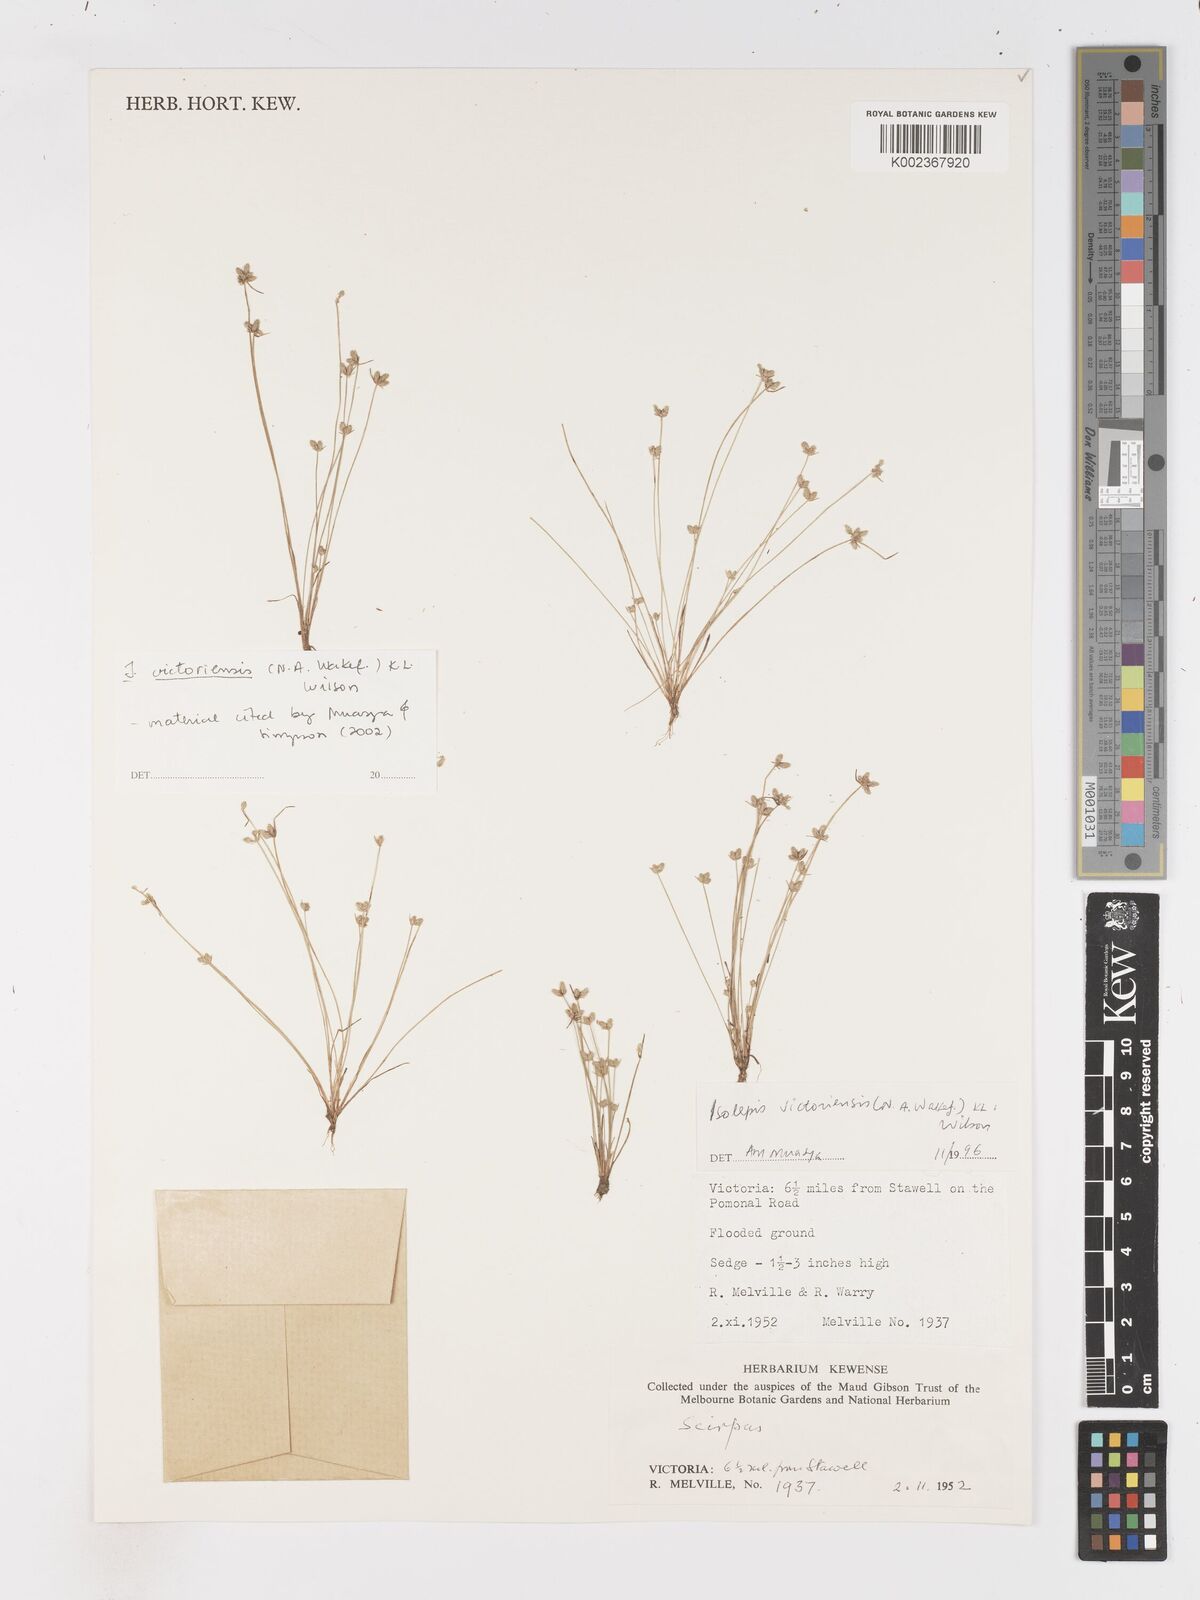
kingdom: Plantae
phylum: Tracheophyta
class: Liliopsida
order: Poales
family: Cyperaceae
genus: Isolepis
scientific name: Isolepis victoriensis
